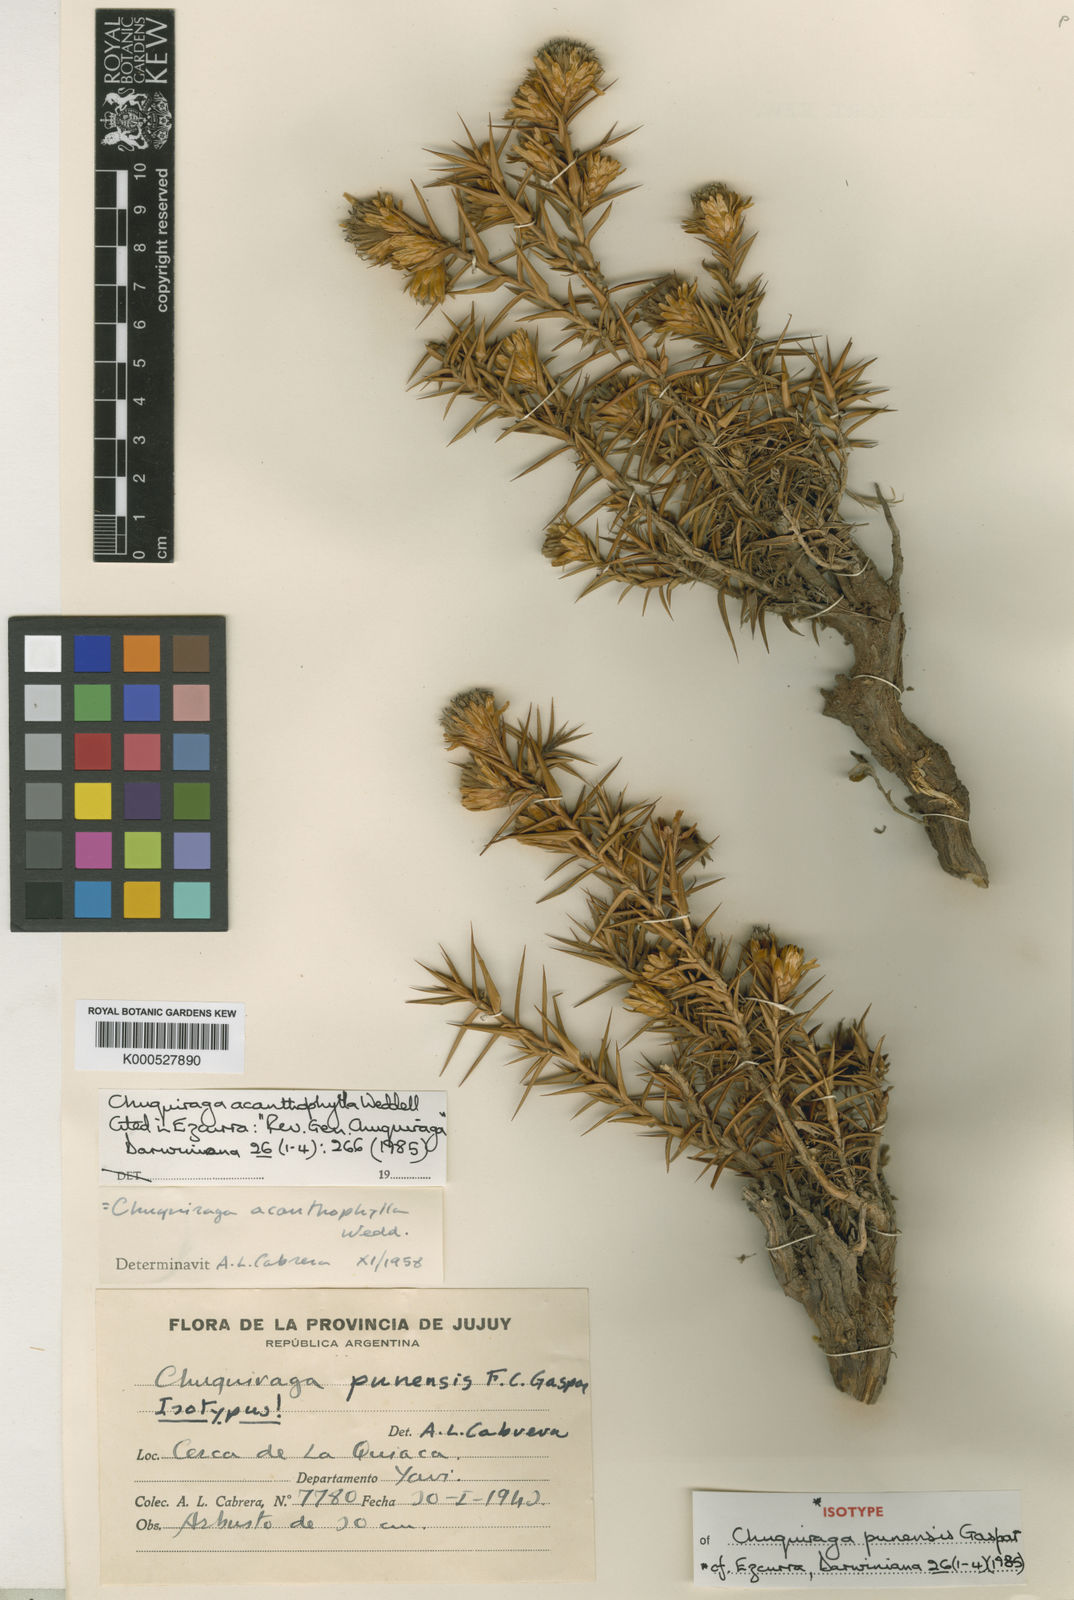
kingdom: Plantae
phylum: Tracheophyta
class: Magnoliopsida
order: Asterales
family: Asteraceae
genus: Chuquiraga
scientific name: Chuquiraga acanthophylla
